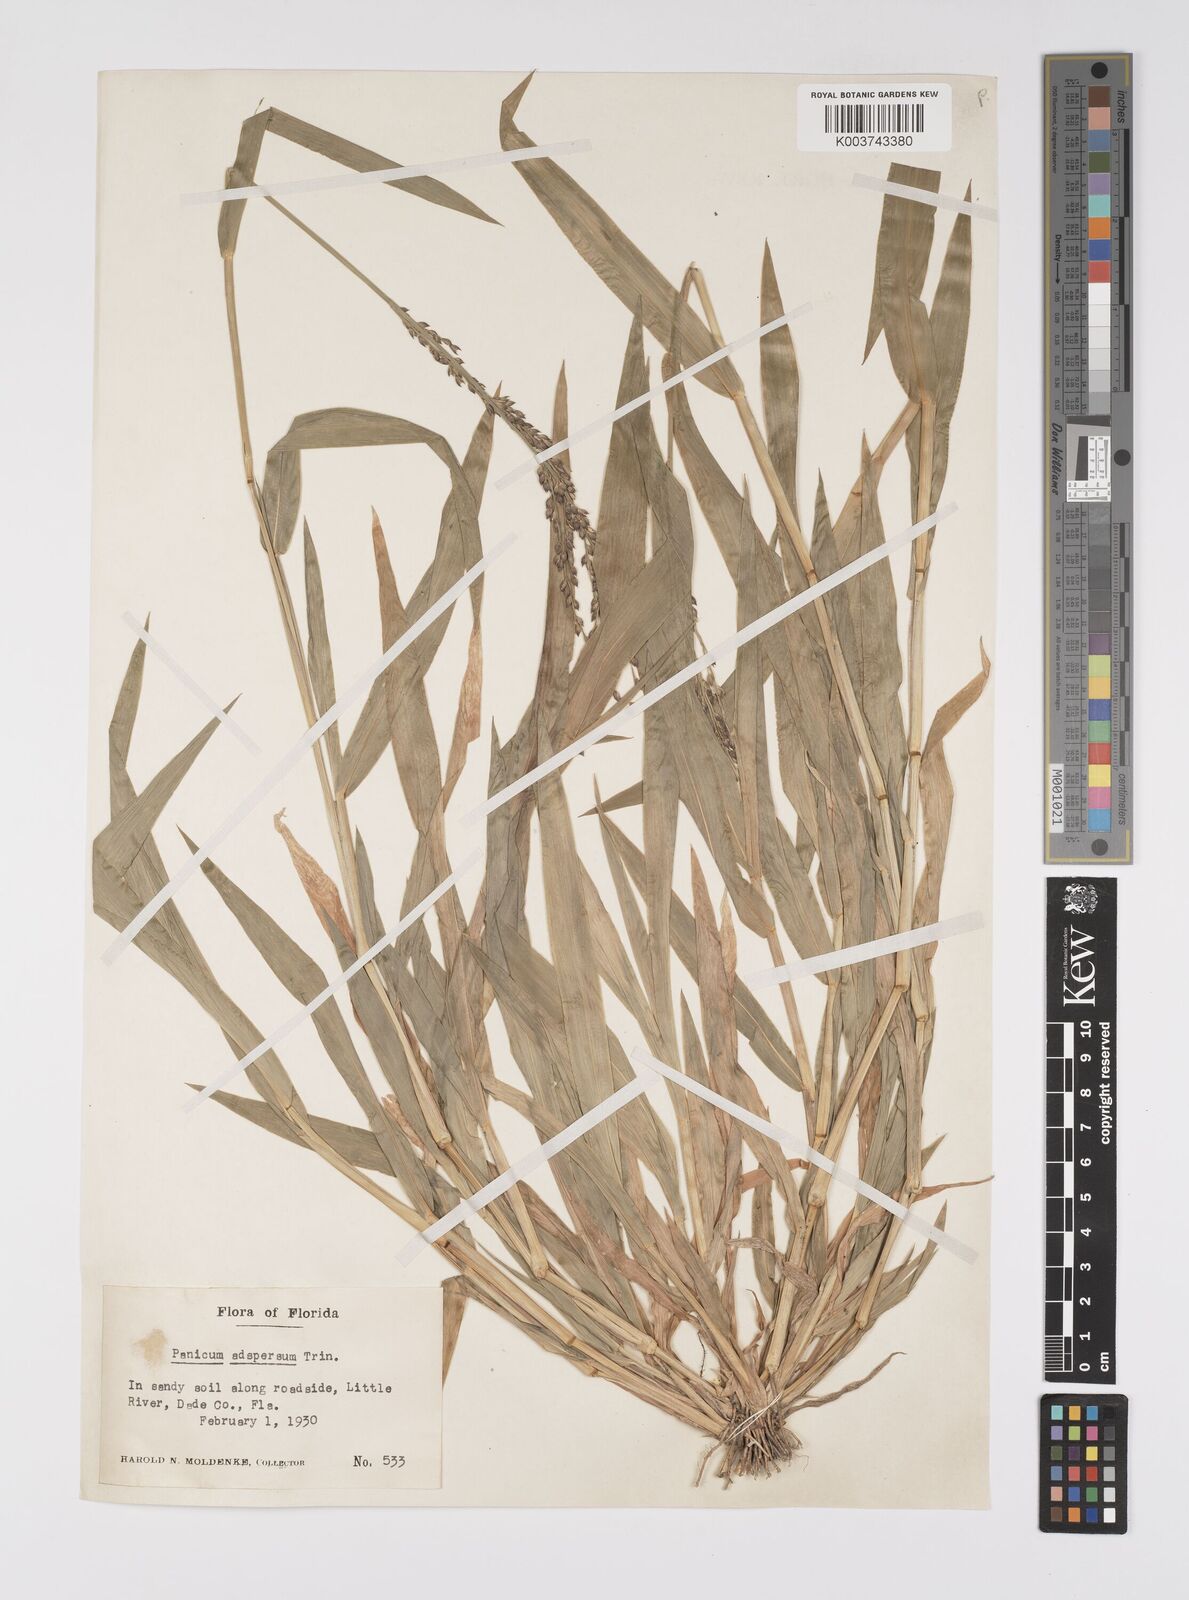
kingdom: Plantae
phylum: Tracheophyta
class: Liliopsida
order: Poales
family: Poaceae
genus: Urochloa
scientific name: Urochloa adspersa
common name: Dominican signal grass
